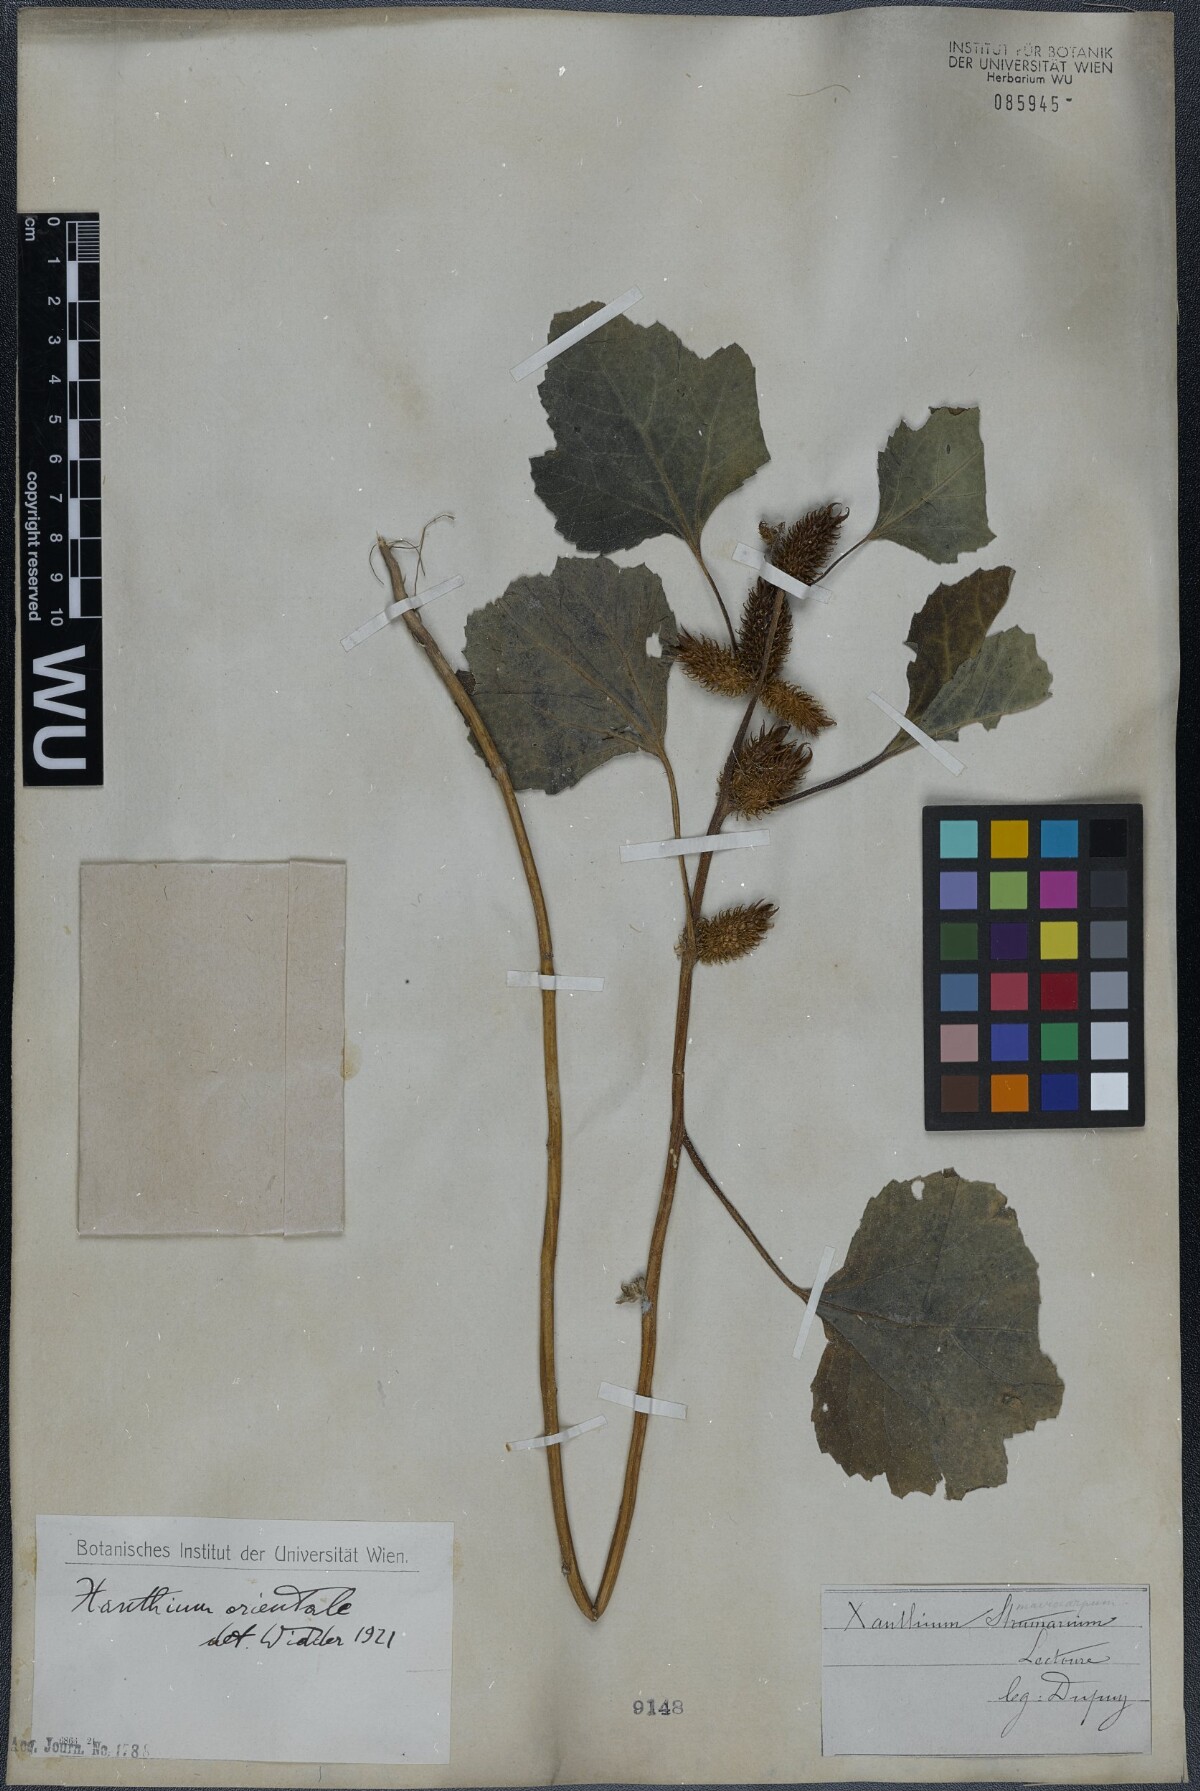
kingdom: Plantae
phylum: Tracheophyta
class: Magnoliopsida
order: Asterales
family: Asteraceae
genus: Xanthium
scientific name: Xanthium orientale
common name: Californian burr
